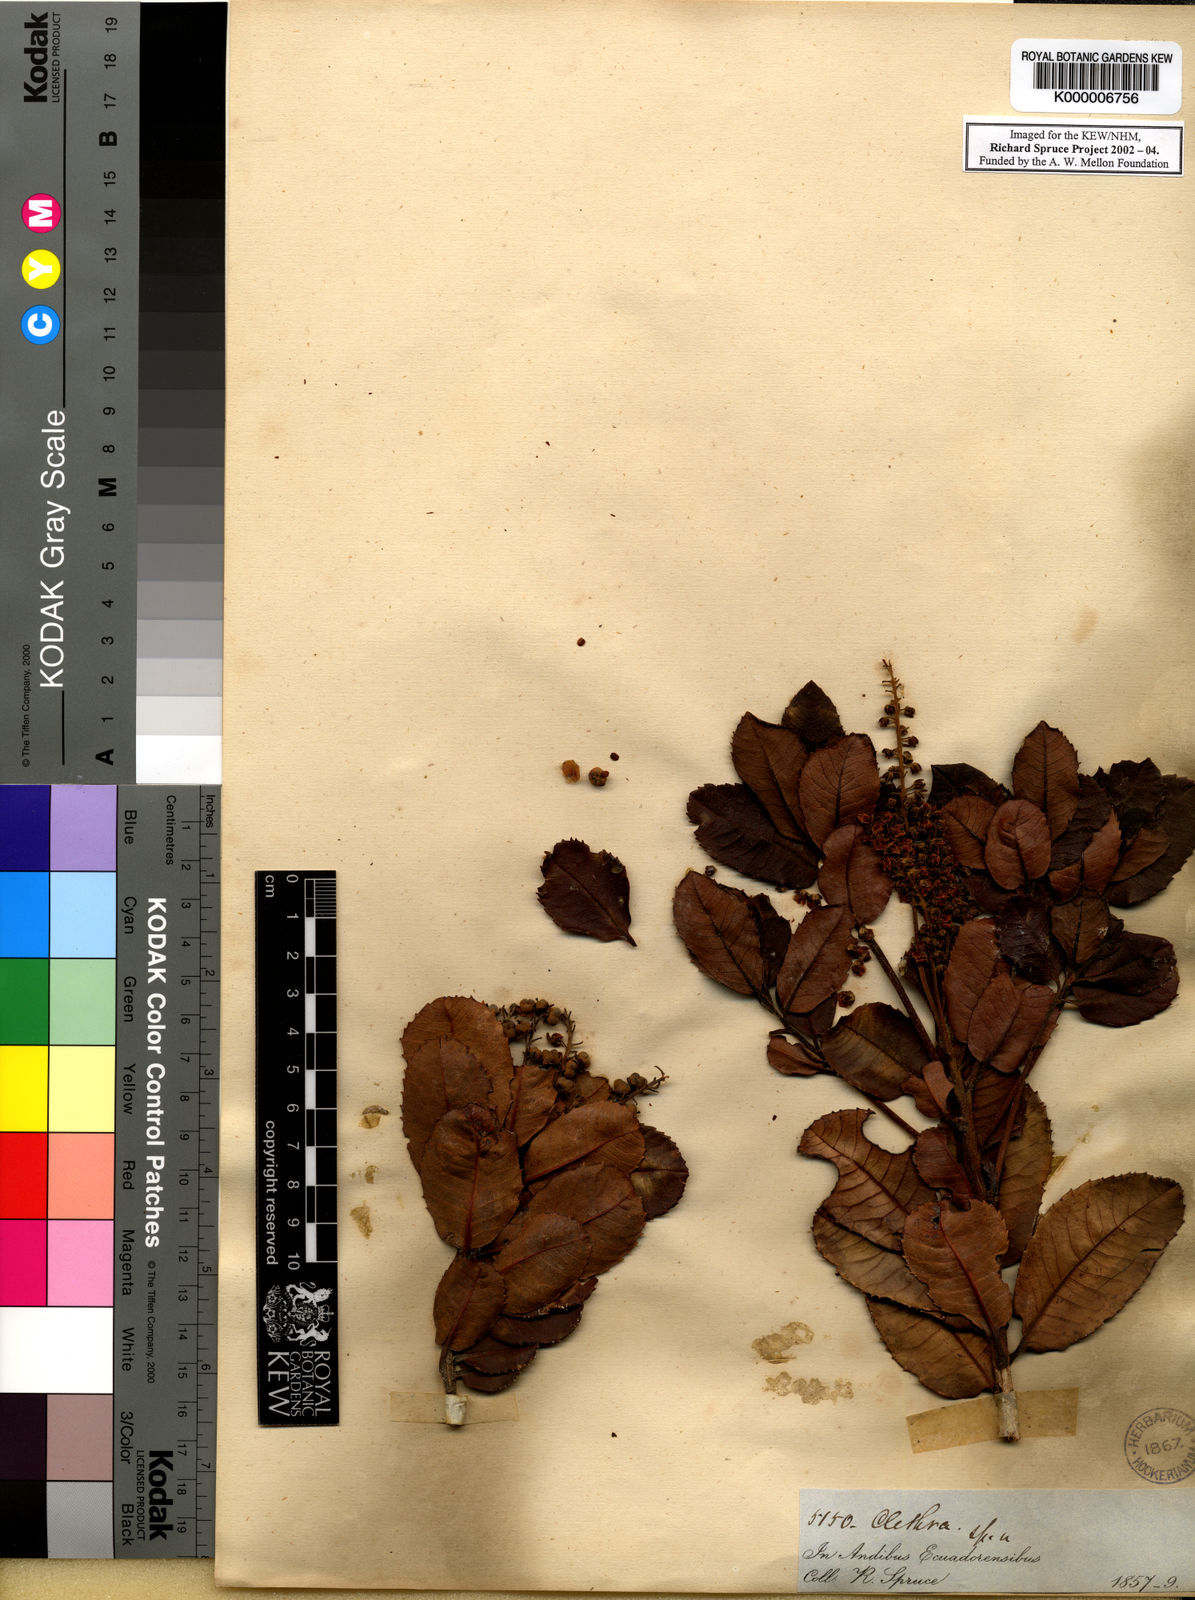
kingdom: Plantae
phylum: Tracheophyta
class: Magnoliopsida
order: Ericales
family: Clethraceae
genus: Clethra
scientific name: Clethra ovalifolia
